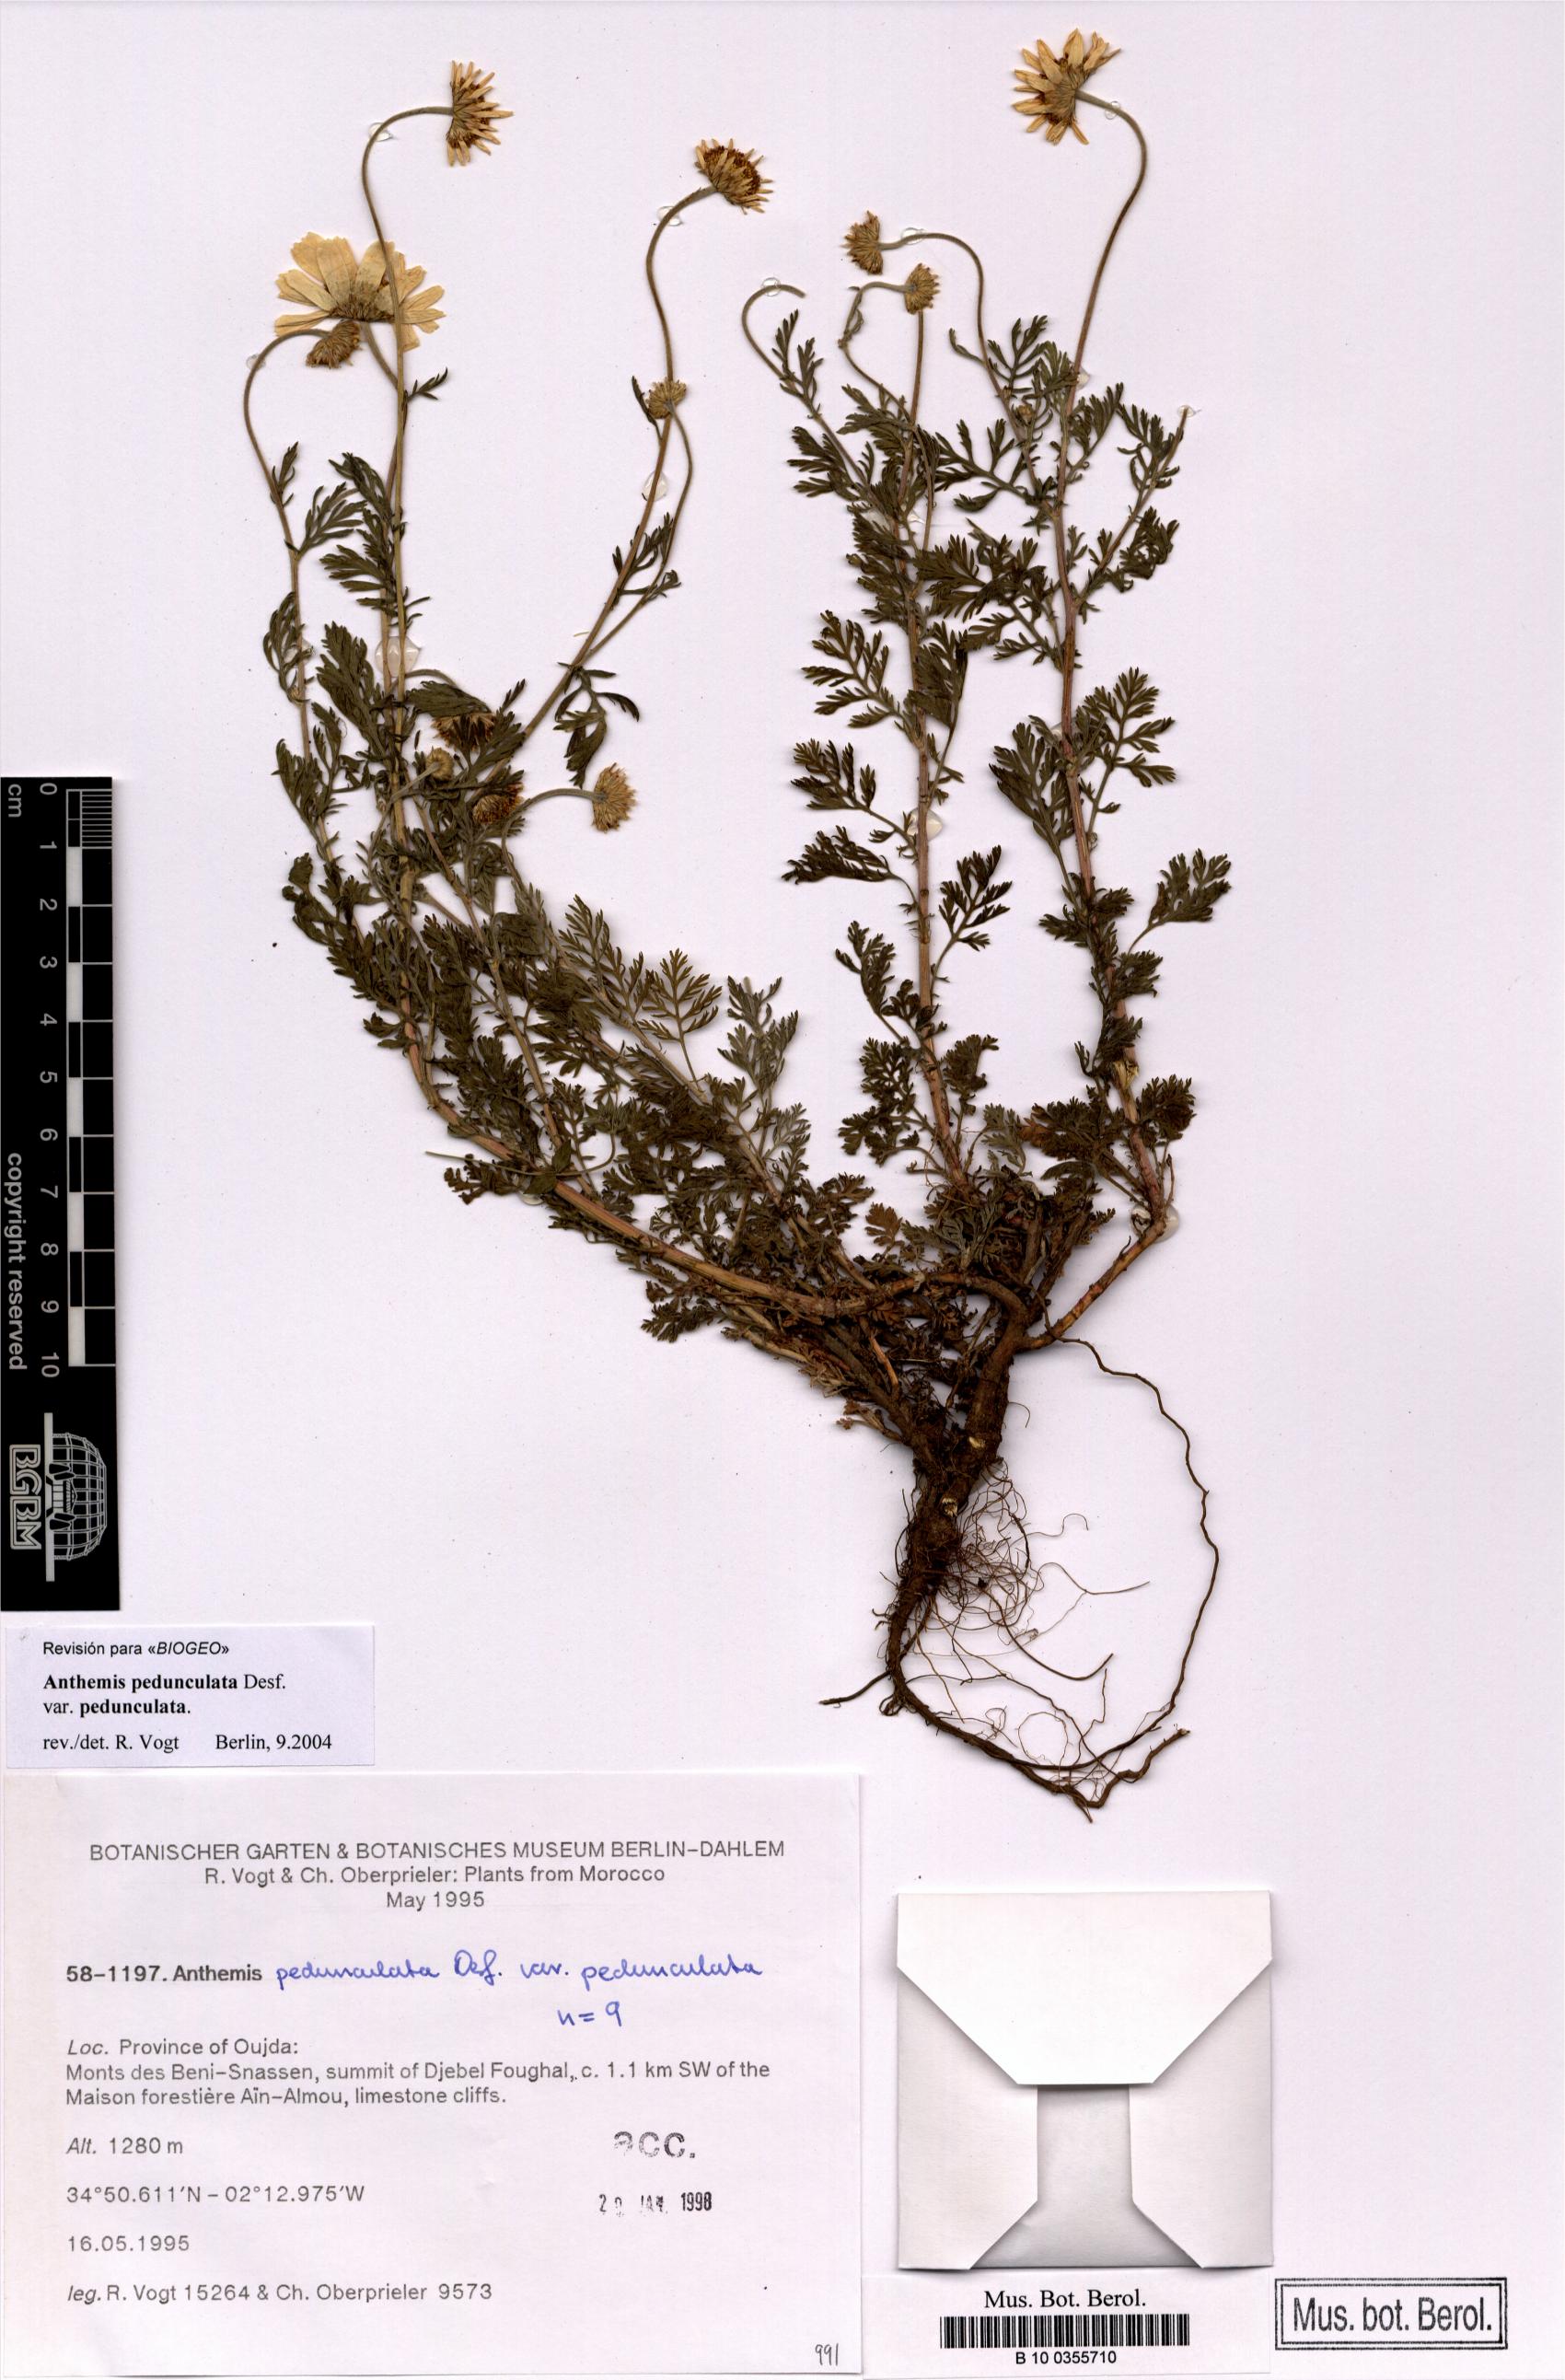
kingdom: Plantae
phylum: Tracheophyta
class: Magnoliopsida
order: Asterales
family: Asteraceae
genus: Anthemis
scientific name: Anthemis pedunculata
